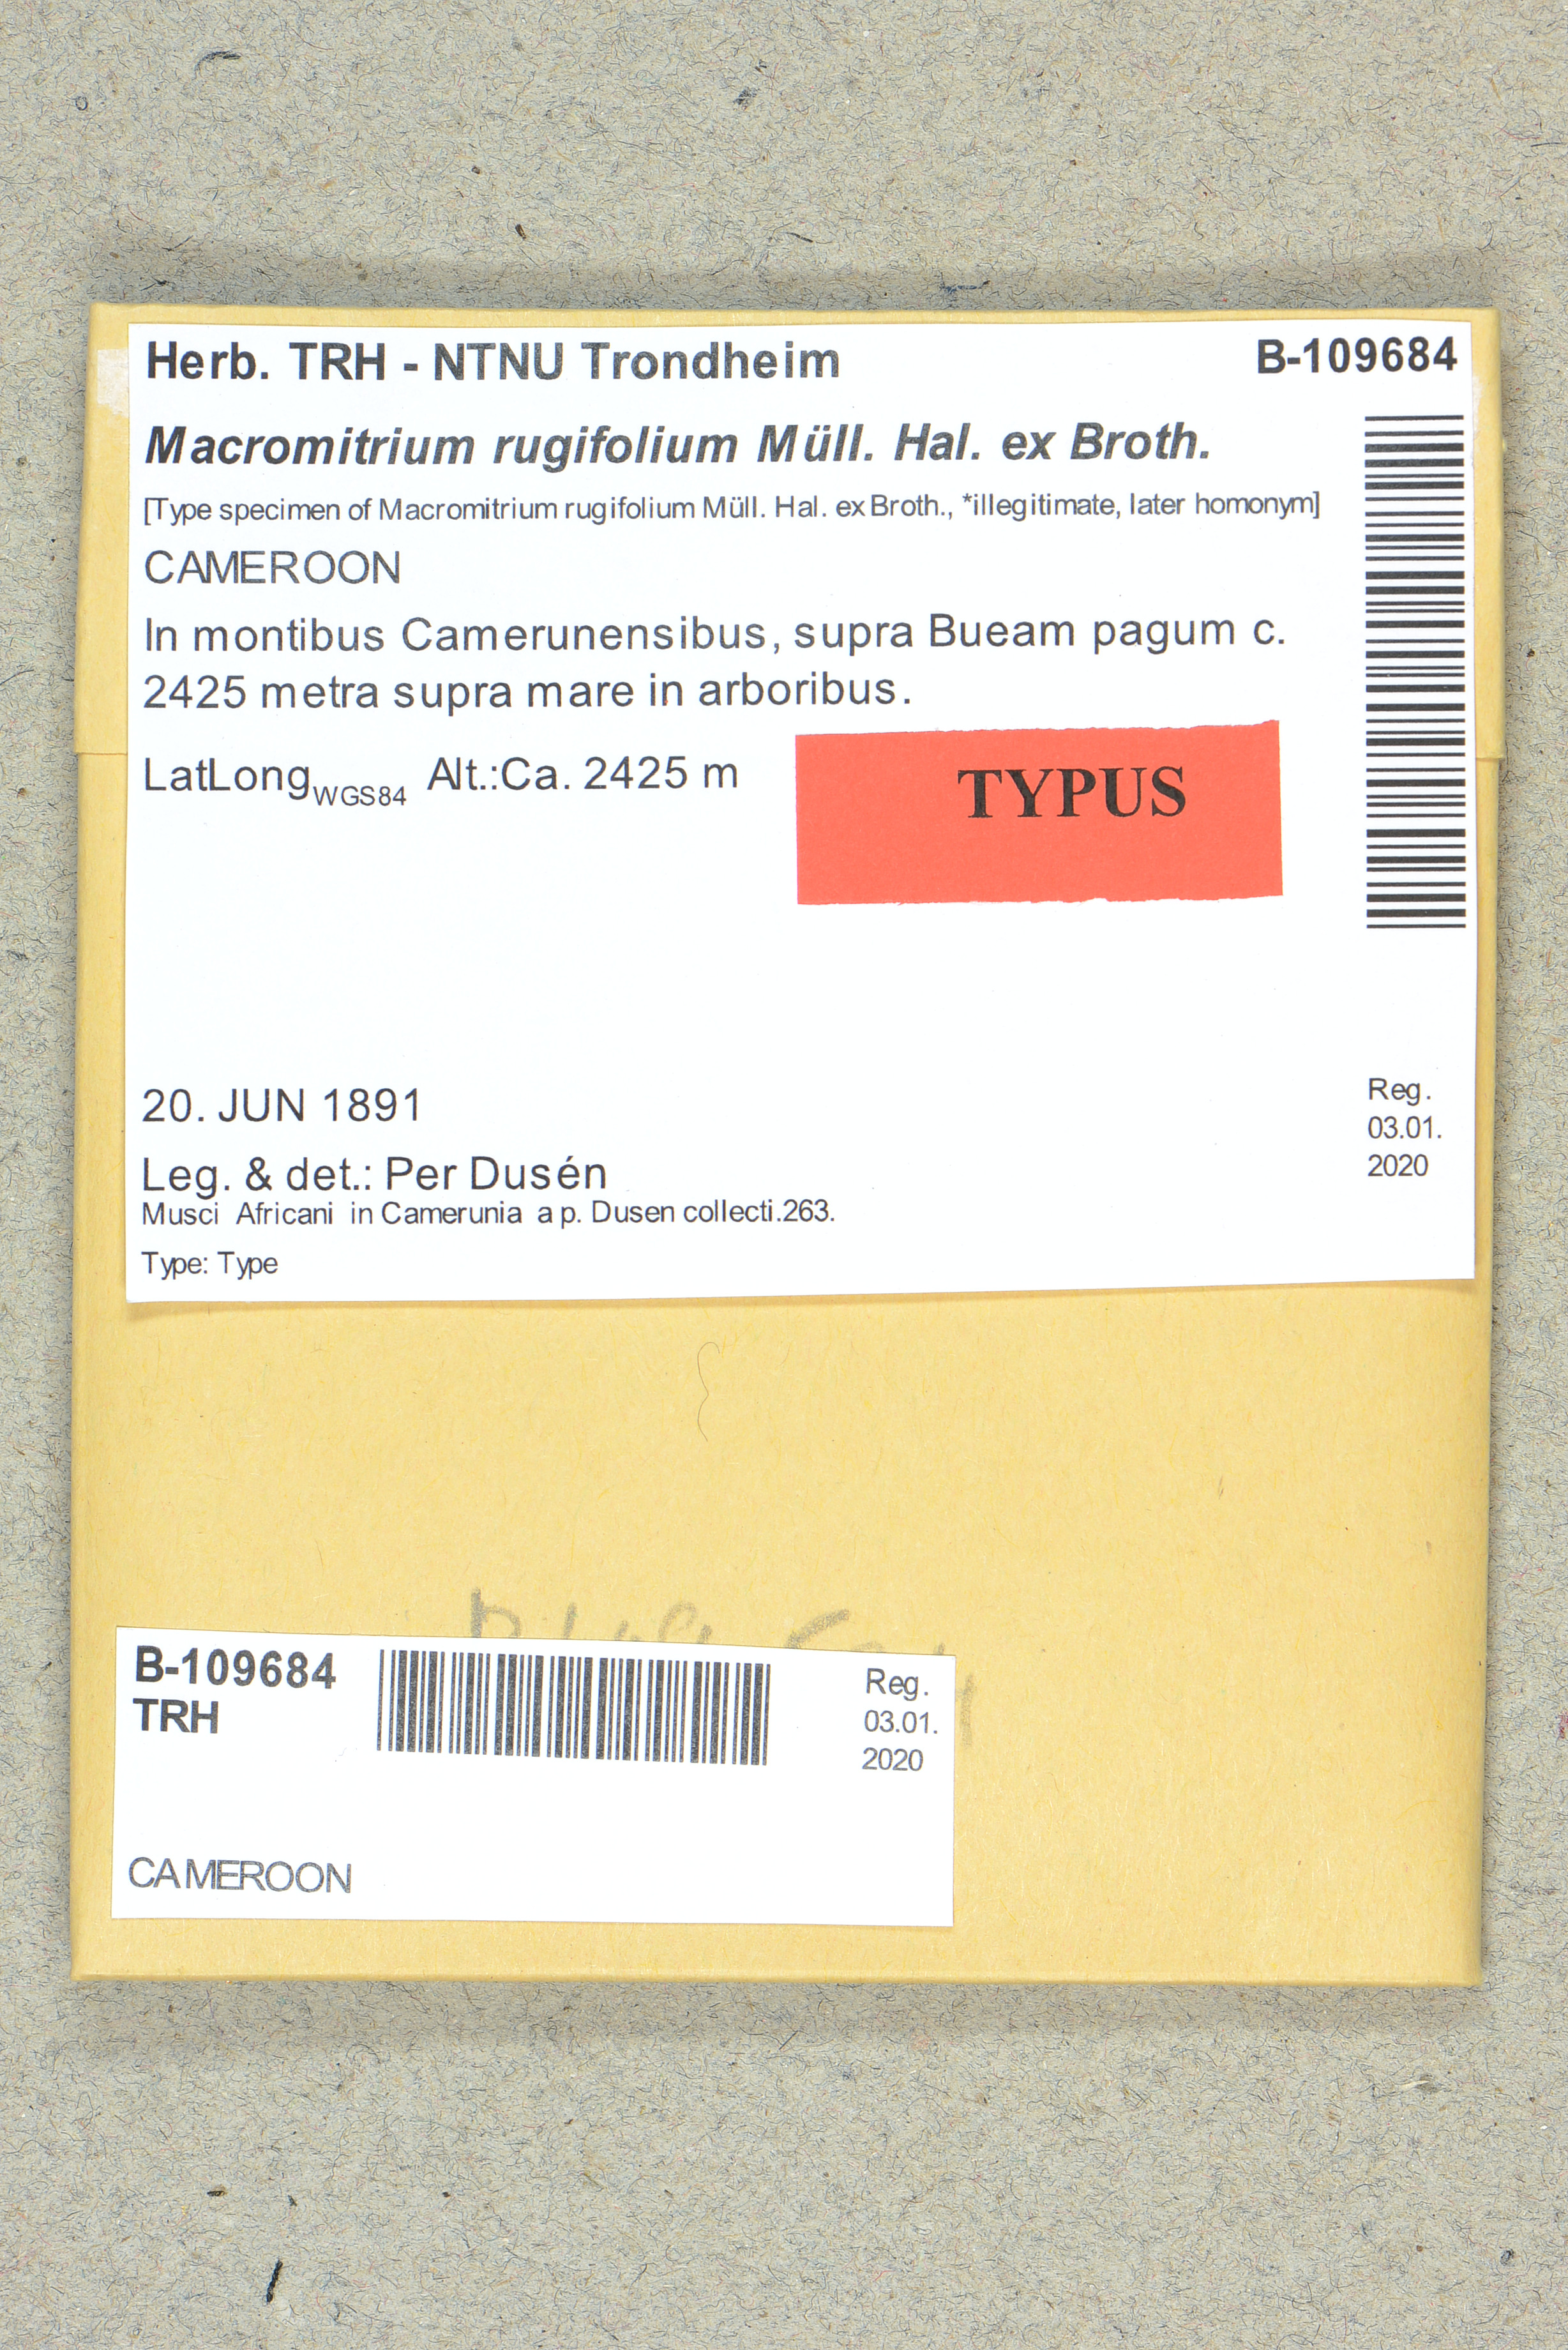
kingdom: Plantae
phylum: Bryophyta
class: Bryopsida
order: Orthotrichales
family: Orthotrichaceae
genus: Macromitrium
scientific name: Macromitrium sulcatum
